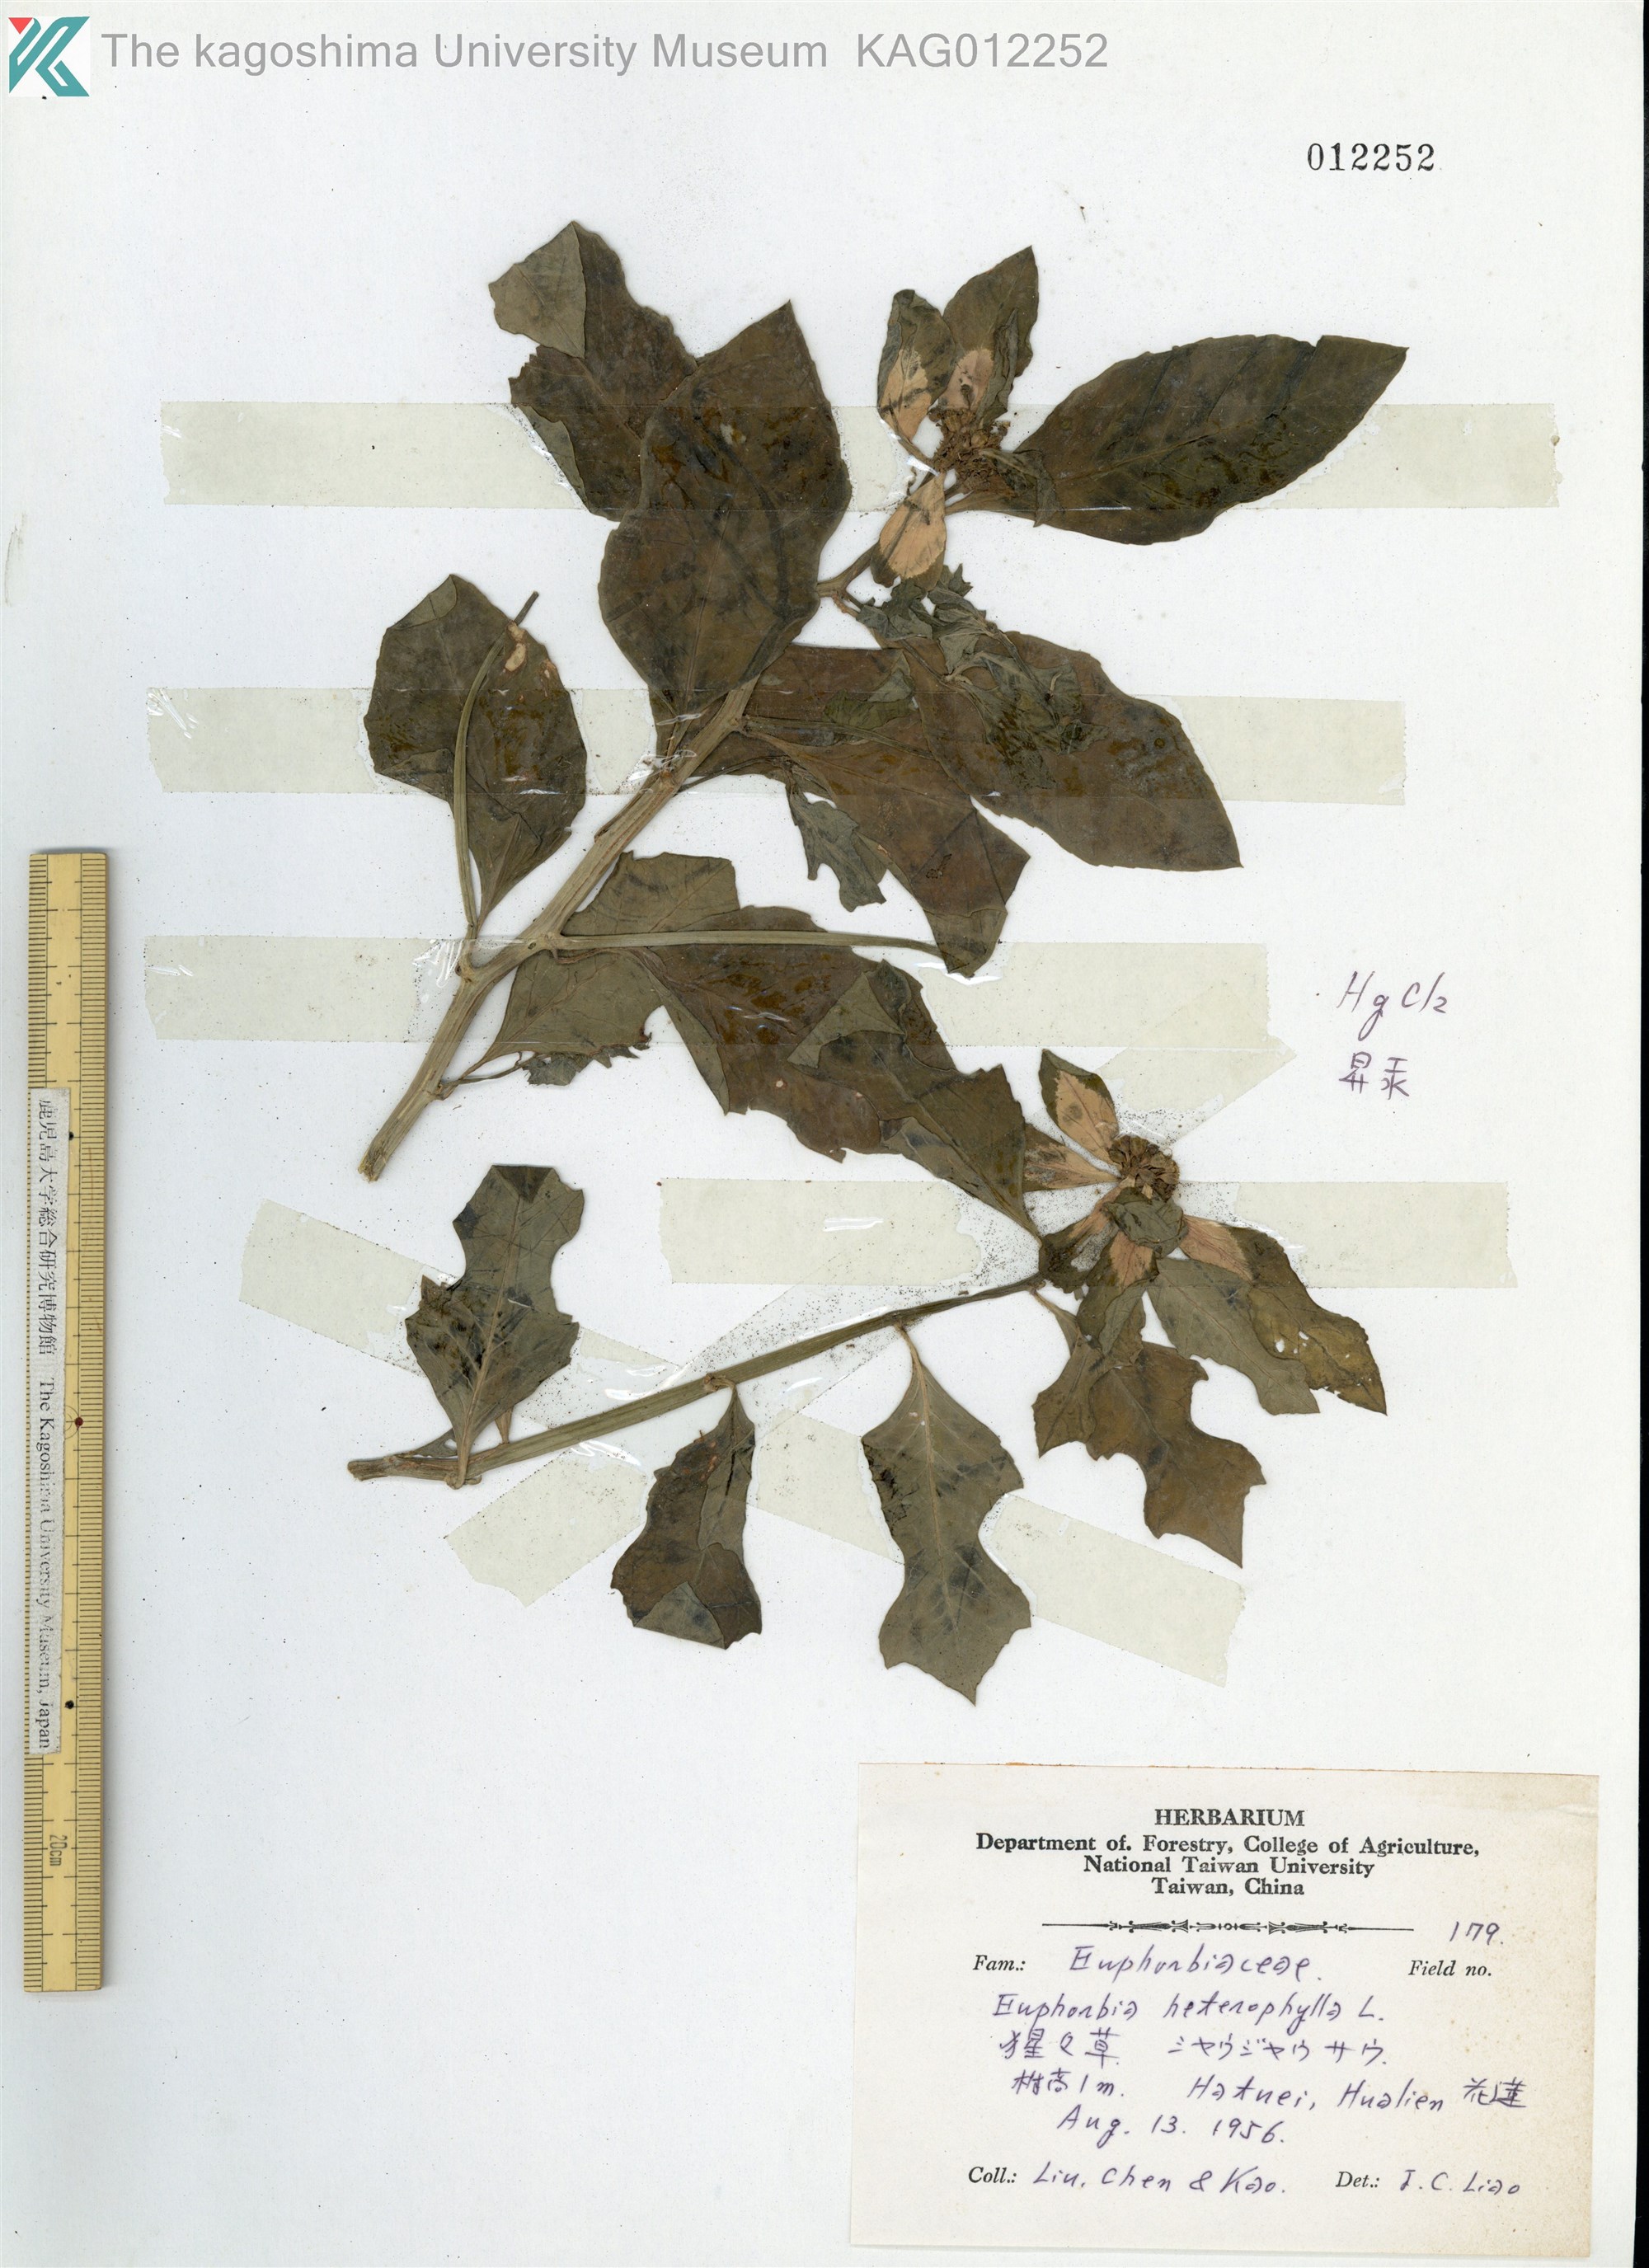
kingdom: Plantae
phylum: Tracheophyta
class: Magnoliopsida
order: Malpighiales
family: Euphorbiaceae
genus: Euphorbia
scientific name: Euphorbia heterophylla
